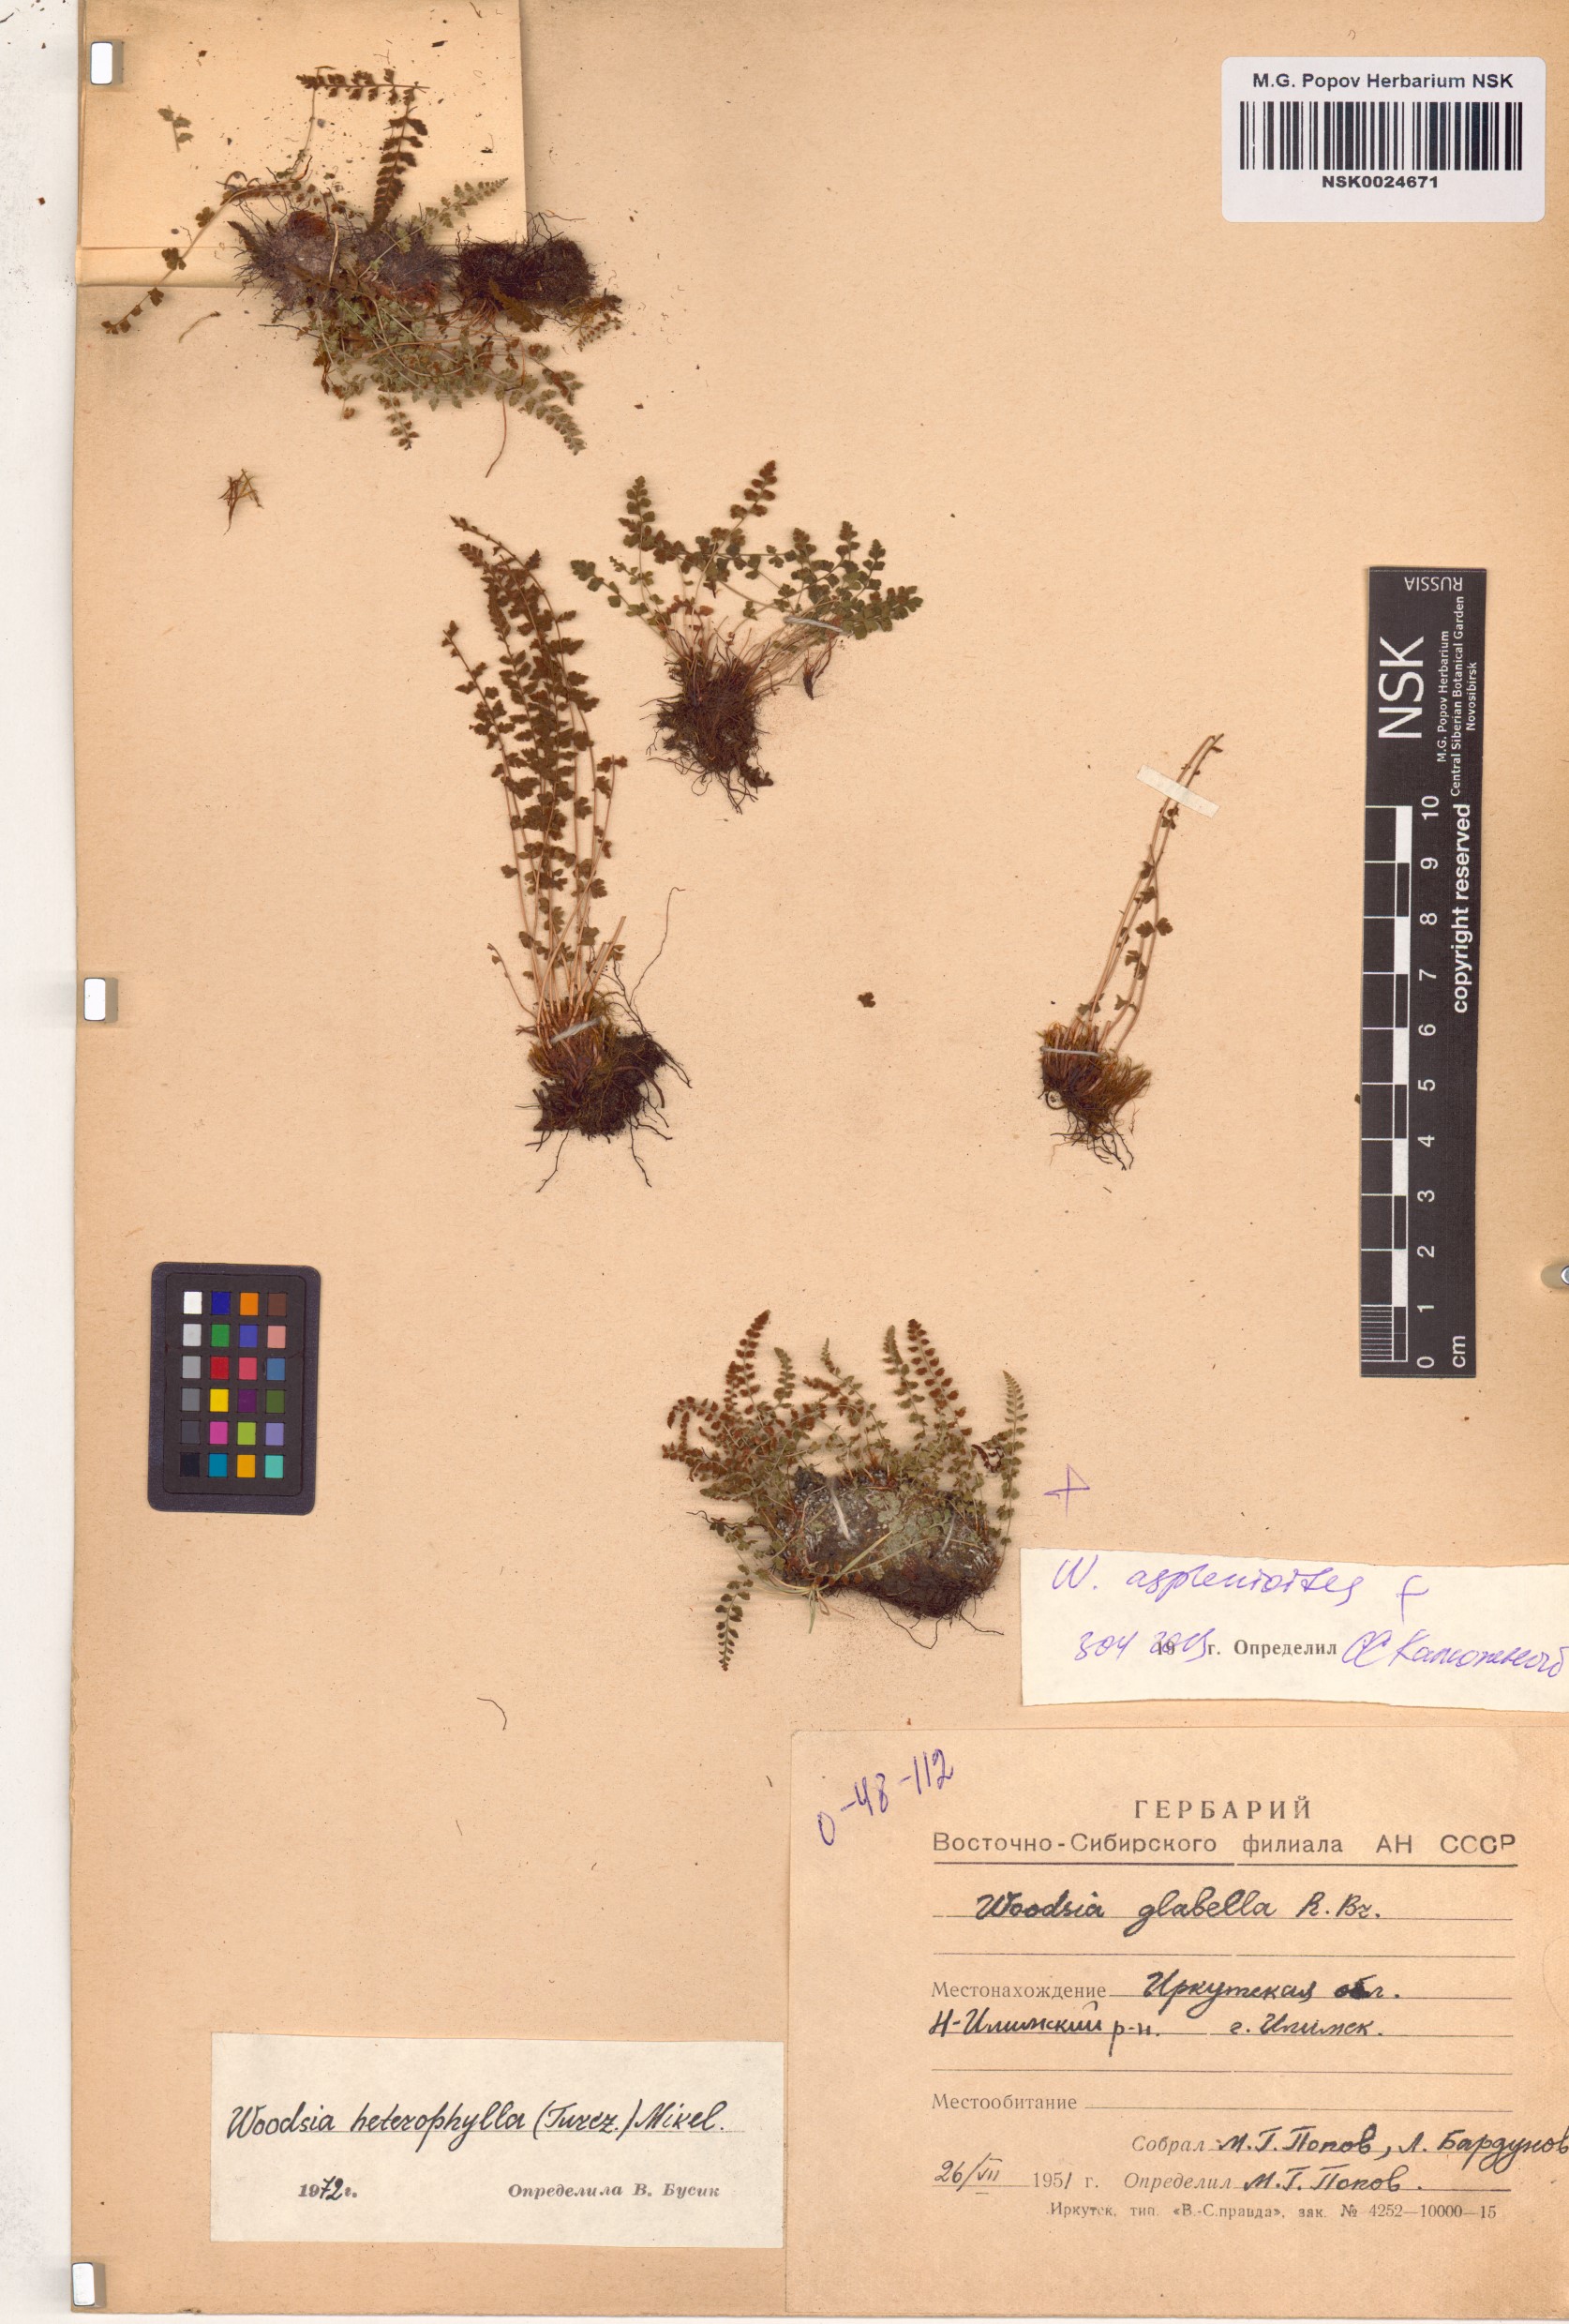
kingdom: Plantae
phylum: Tracheophyta
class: Polypodiopsida
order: Polypodiales
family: Woodsiaceae
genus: Woodsia
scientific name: Woodsia glabella
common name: Smooth woodsia
